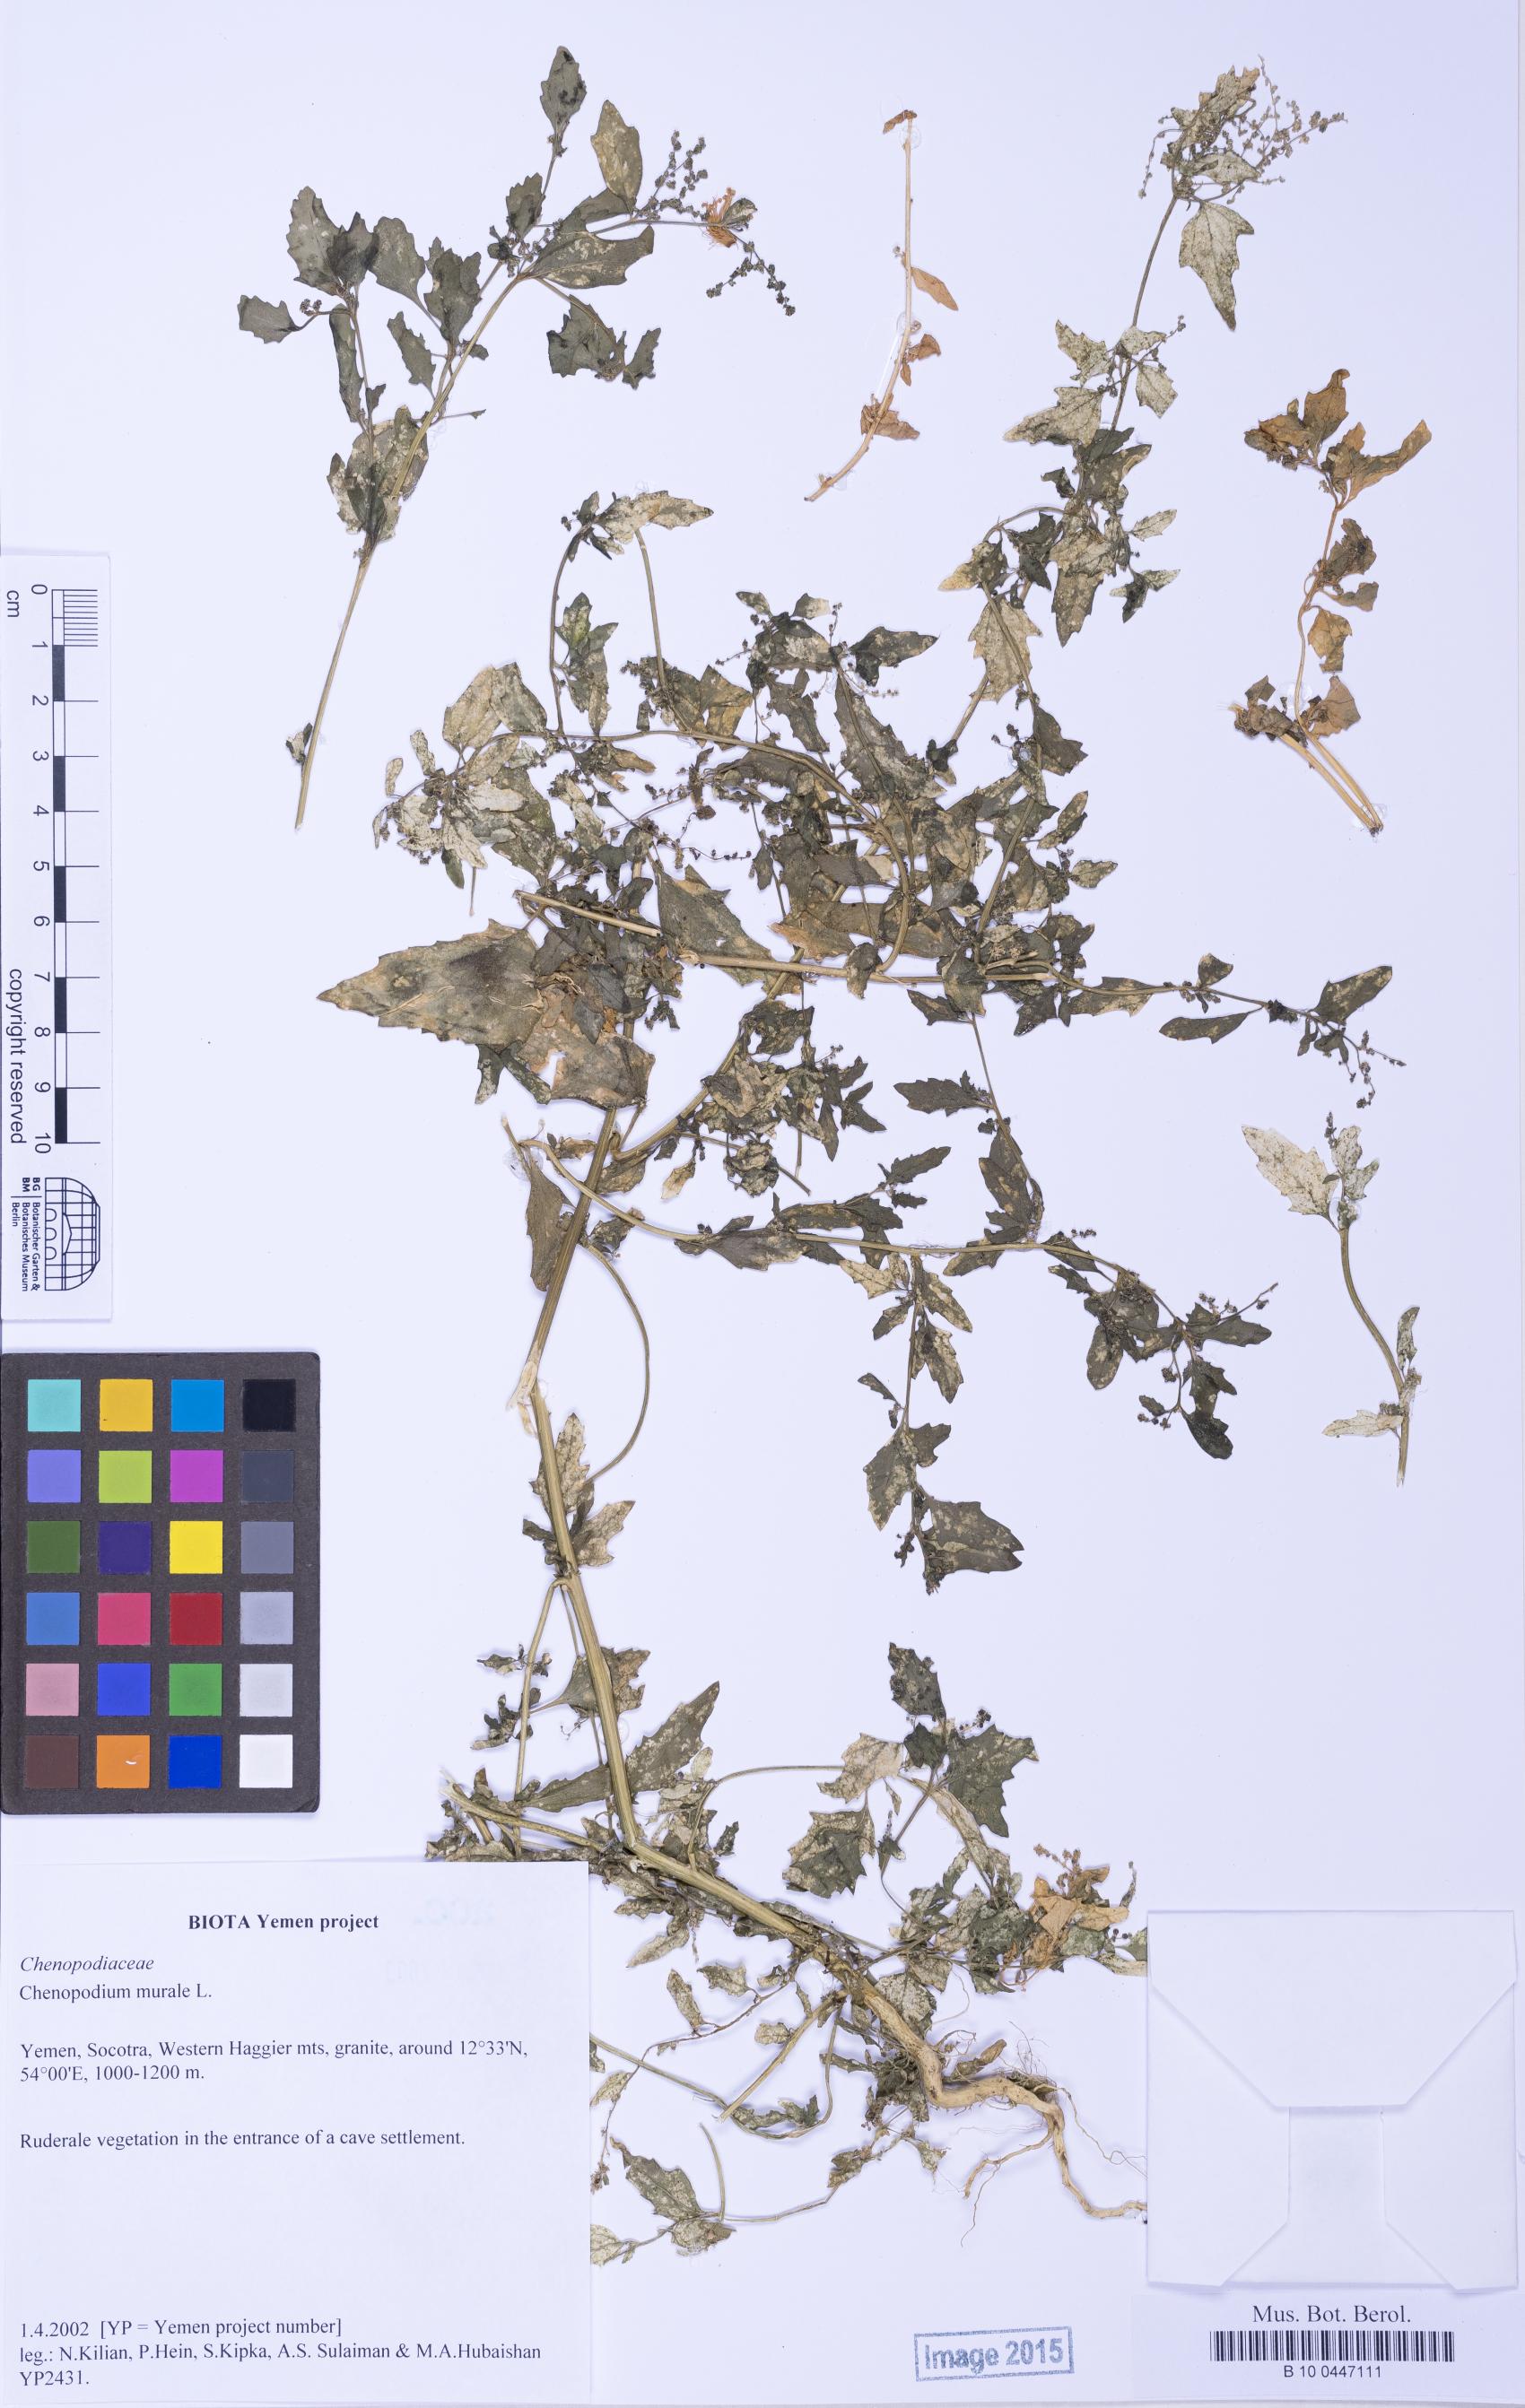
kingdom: Plantae
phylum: Tracheophyta
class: Magnoliopsida
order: Caryophyllales
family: Amaranthaceae
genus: Chenopodiastrum
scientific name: Chenopodiastrum murale
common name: Sowbane
